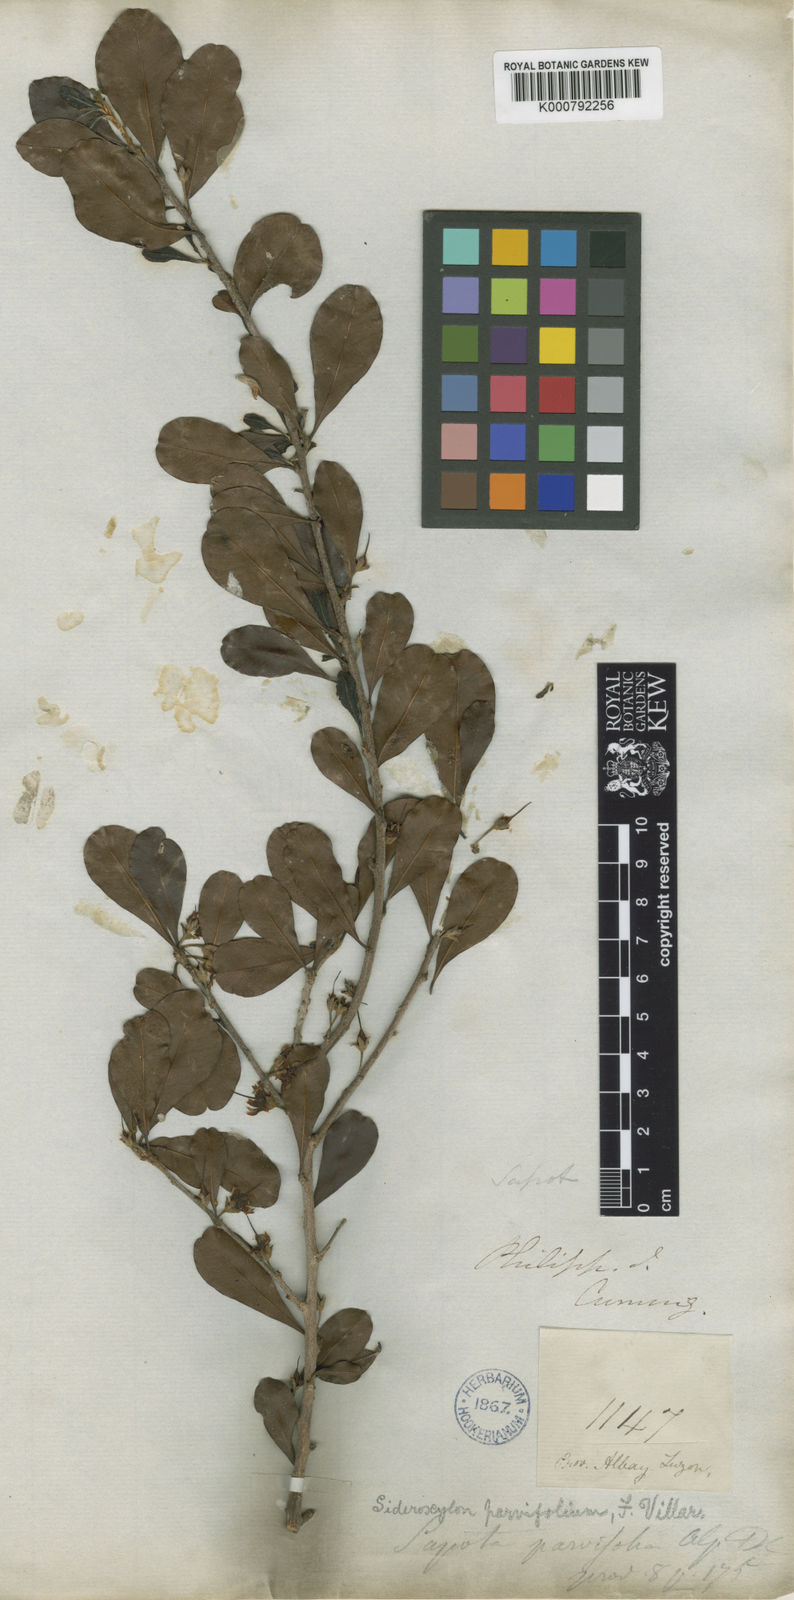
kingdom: Plantae
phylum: Tracheophyta
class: Magnoliopsida
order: Ericales
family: Sapotaceae
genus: Xantolis
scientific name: Xantolis parvifolia
